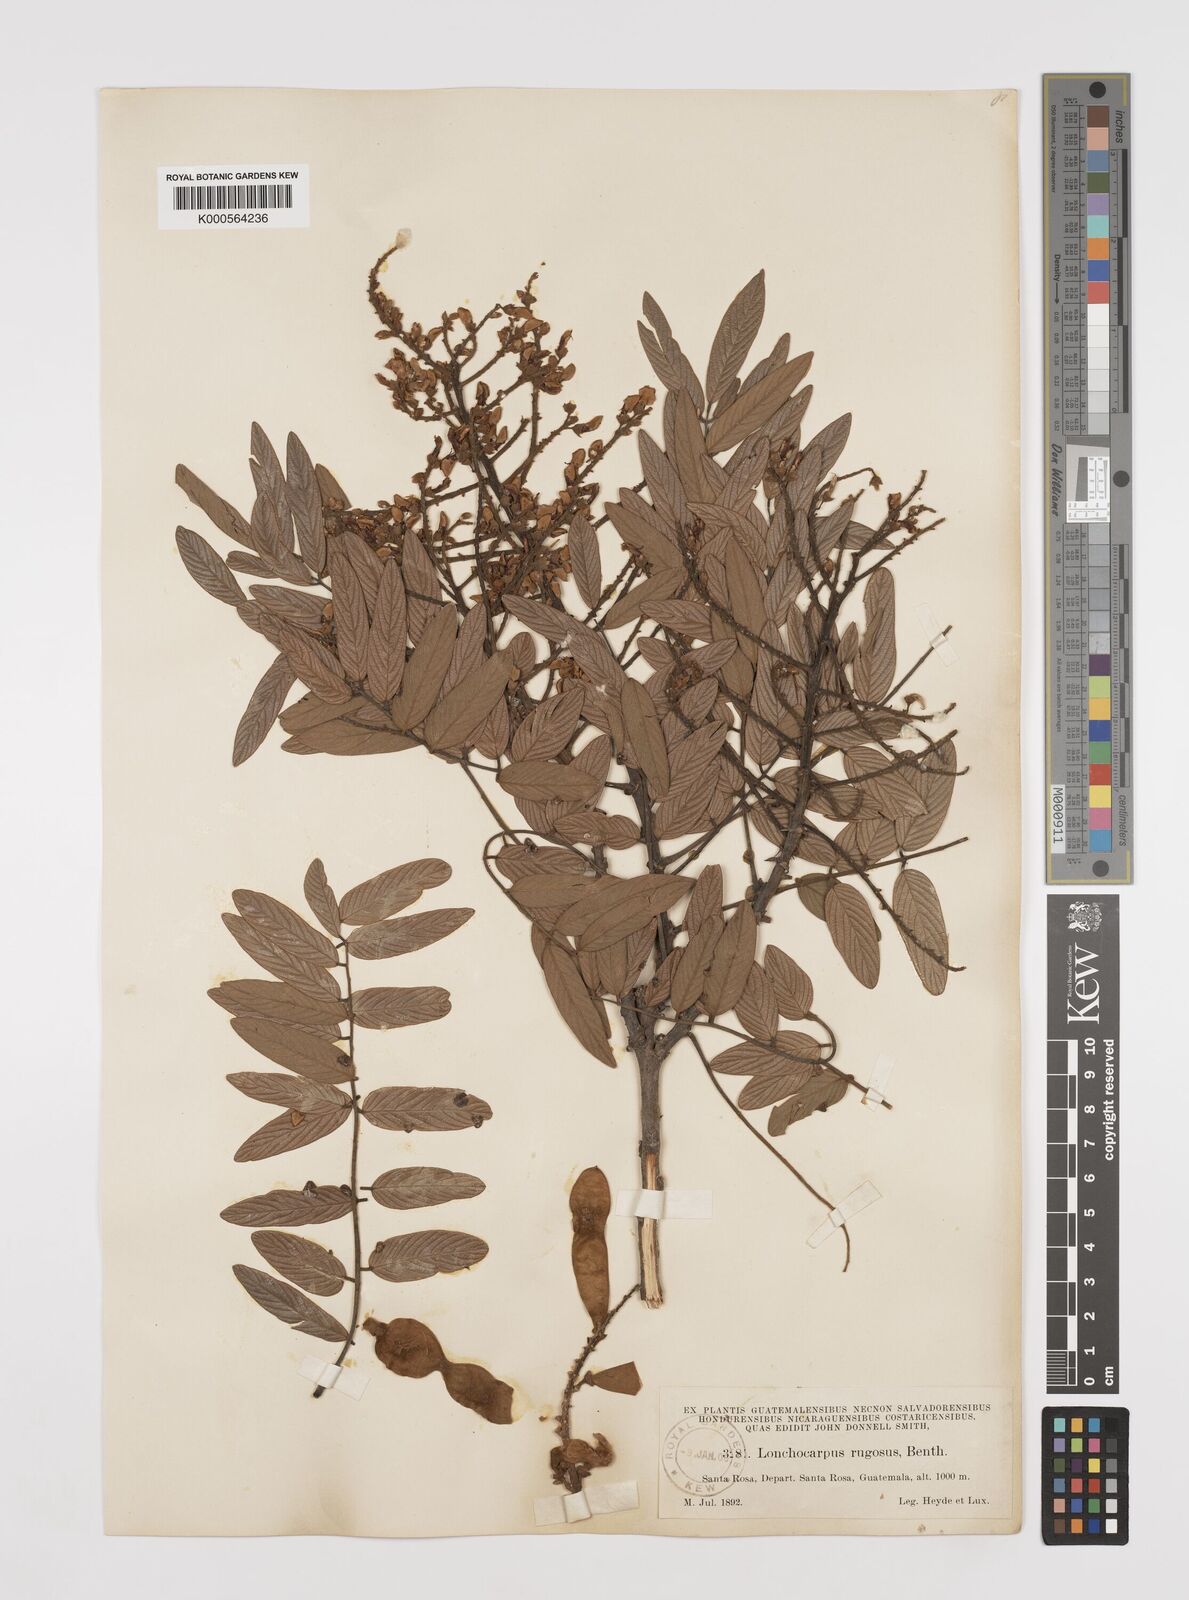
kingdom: Plantae
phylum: Tracheophyta
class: Magnoliopsida
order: Fabales
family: Fabaceae
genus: Lonchocarpus
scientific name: Lonchocarpus rugosus
